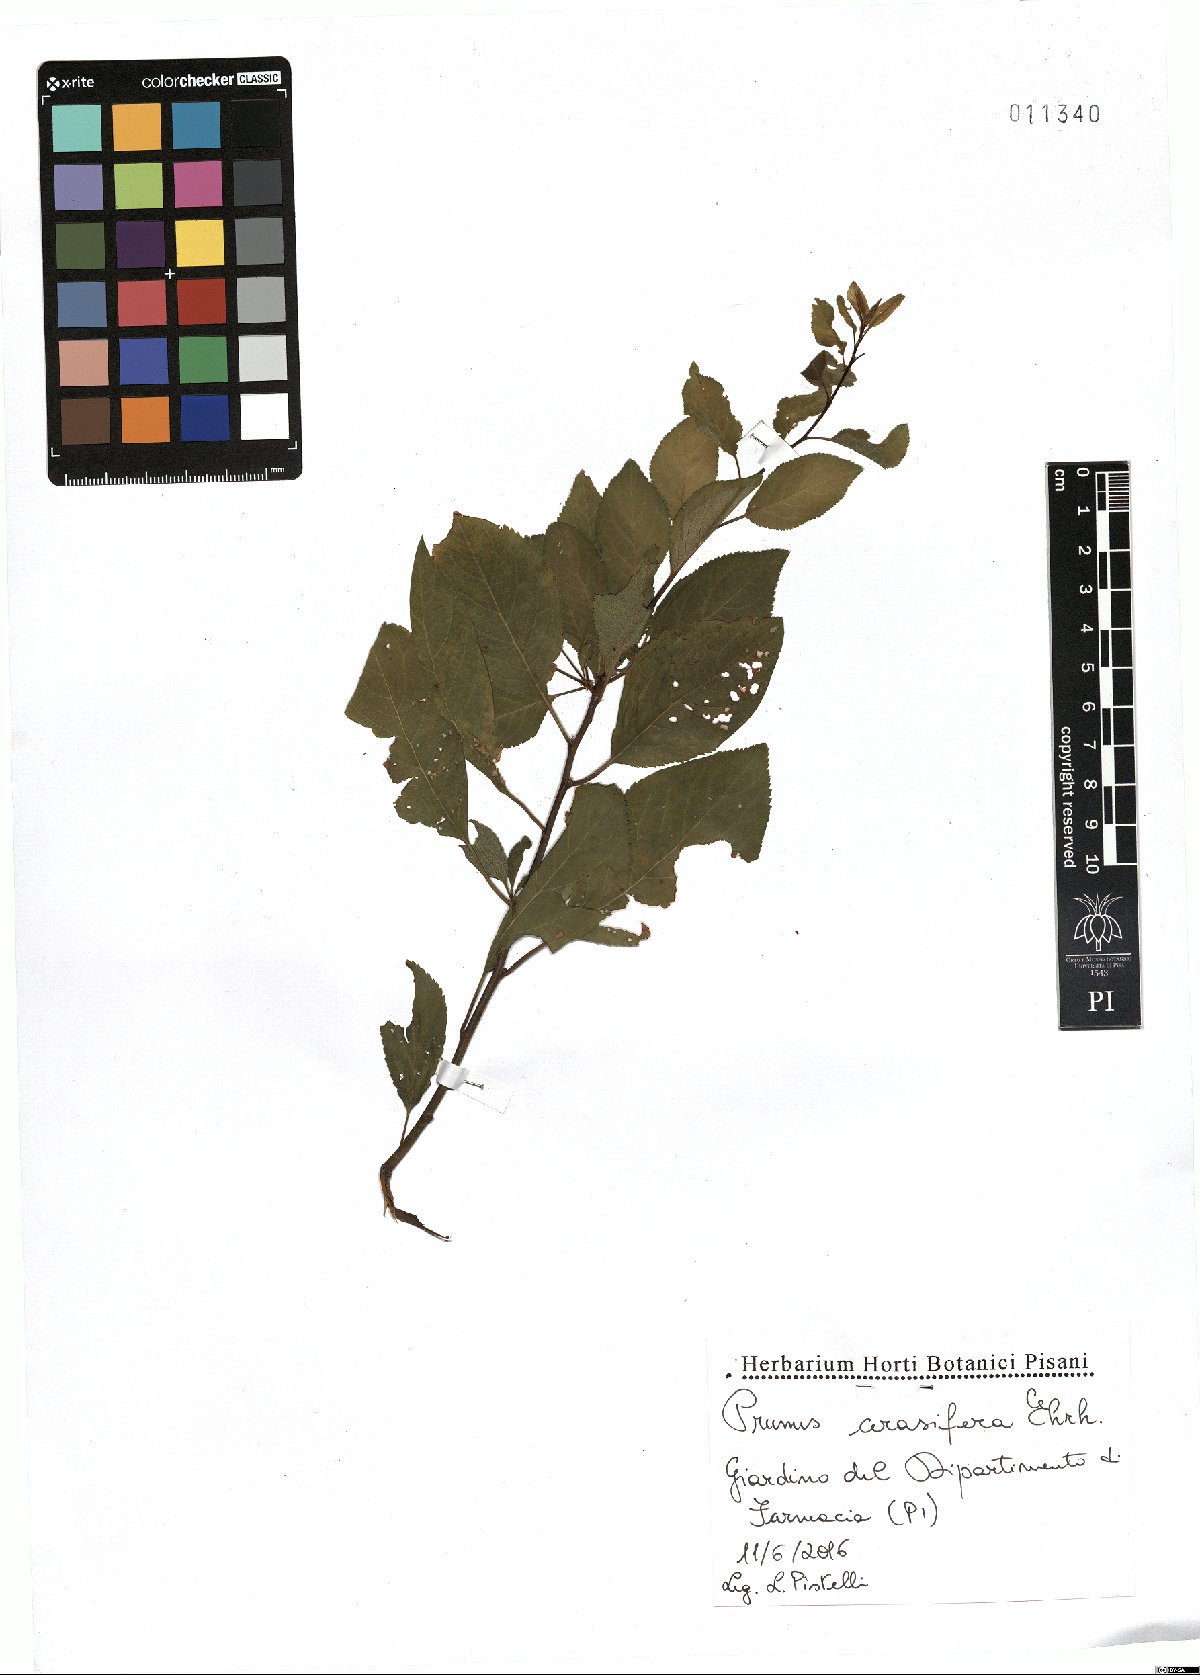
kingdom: Plantae
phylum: Tracheophyta
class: Magnoliopsida
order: Rosales
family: Rosaceae
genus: Prunus
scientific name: Prunus cerasifera
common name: Cherry plum
